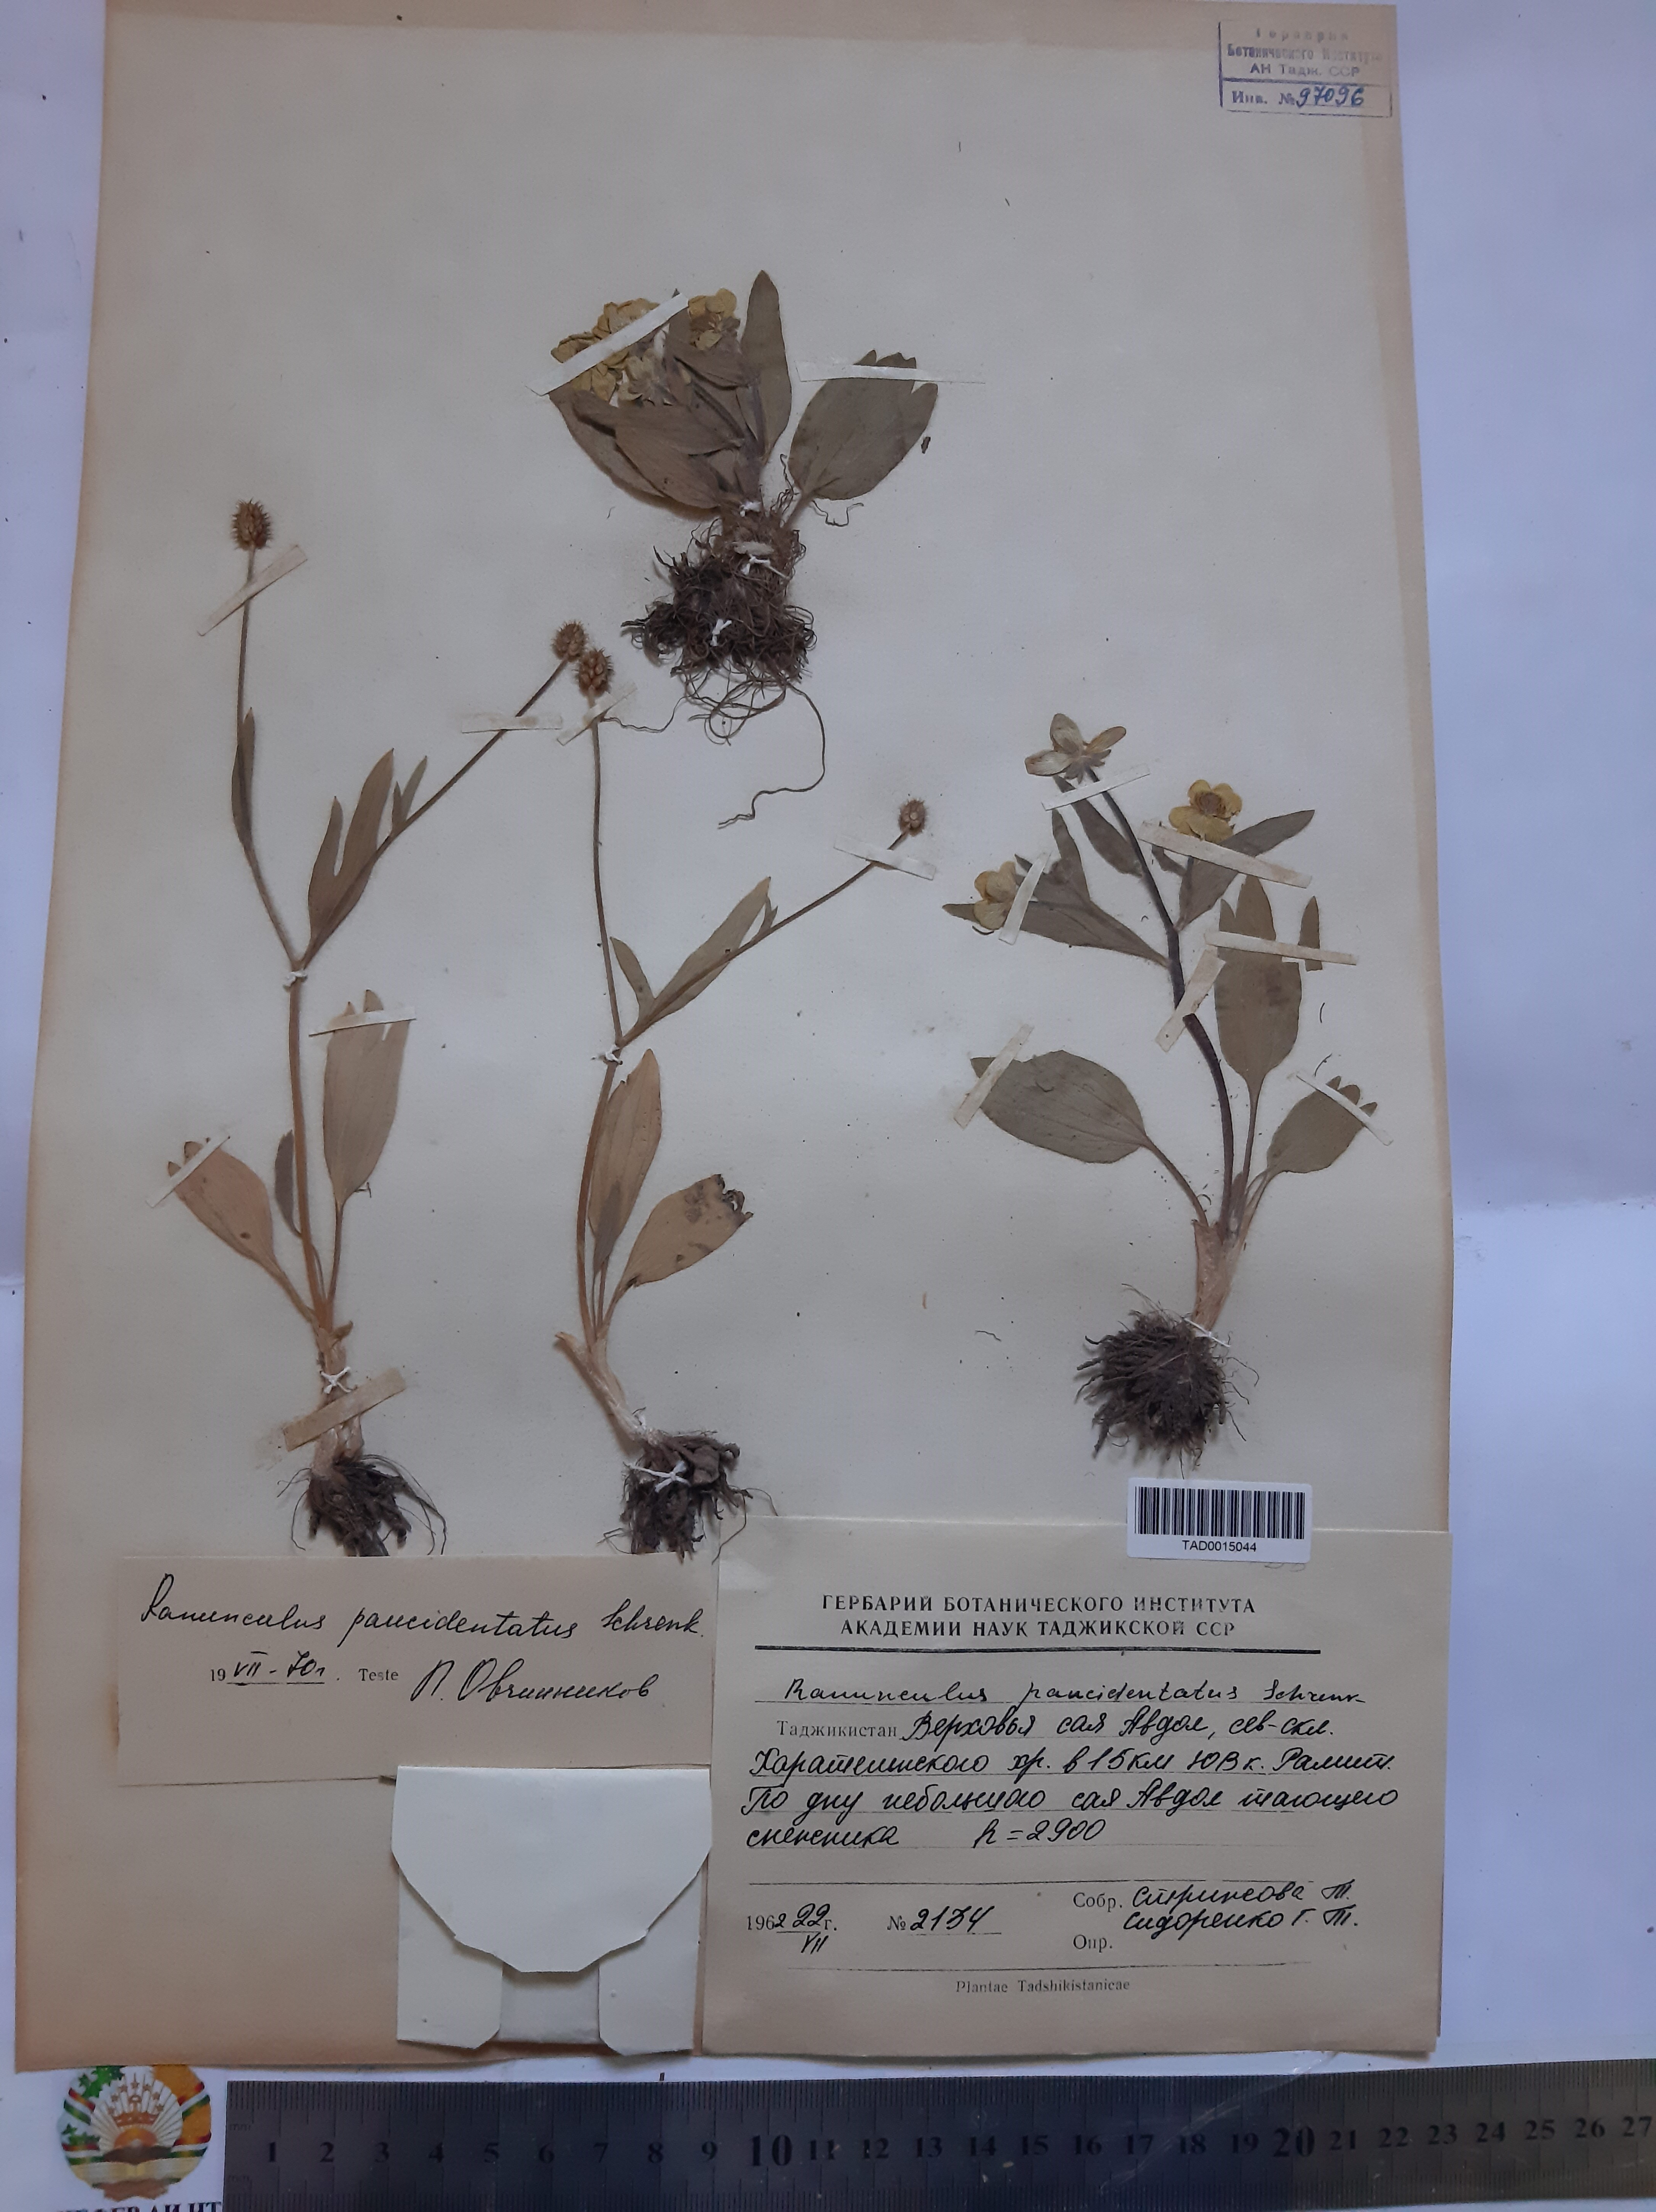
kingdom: Plantae
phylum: Tracheophyta
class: Magnoliopsida
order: Ranunculales
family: Ranunculaceae
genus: Ranunculus
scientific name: Ranunculus paucidentatus
